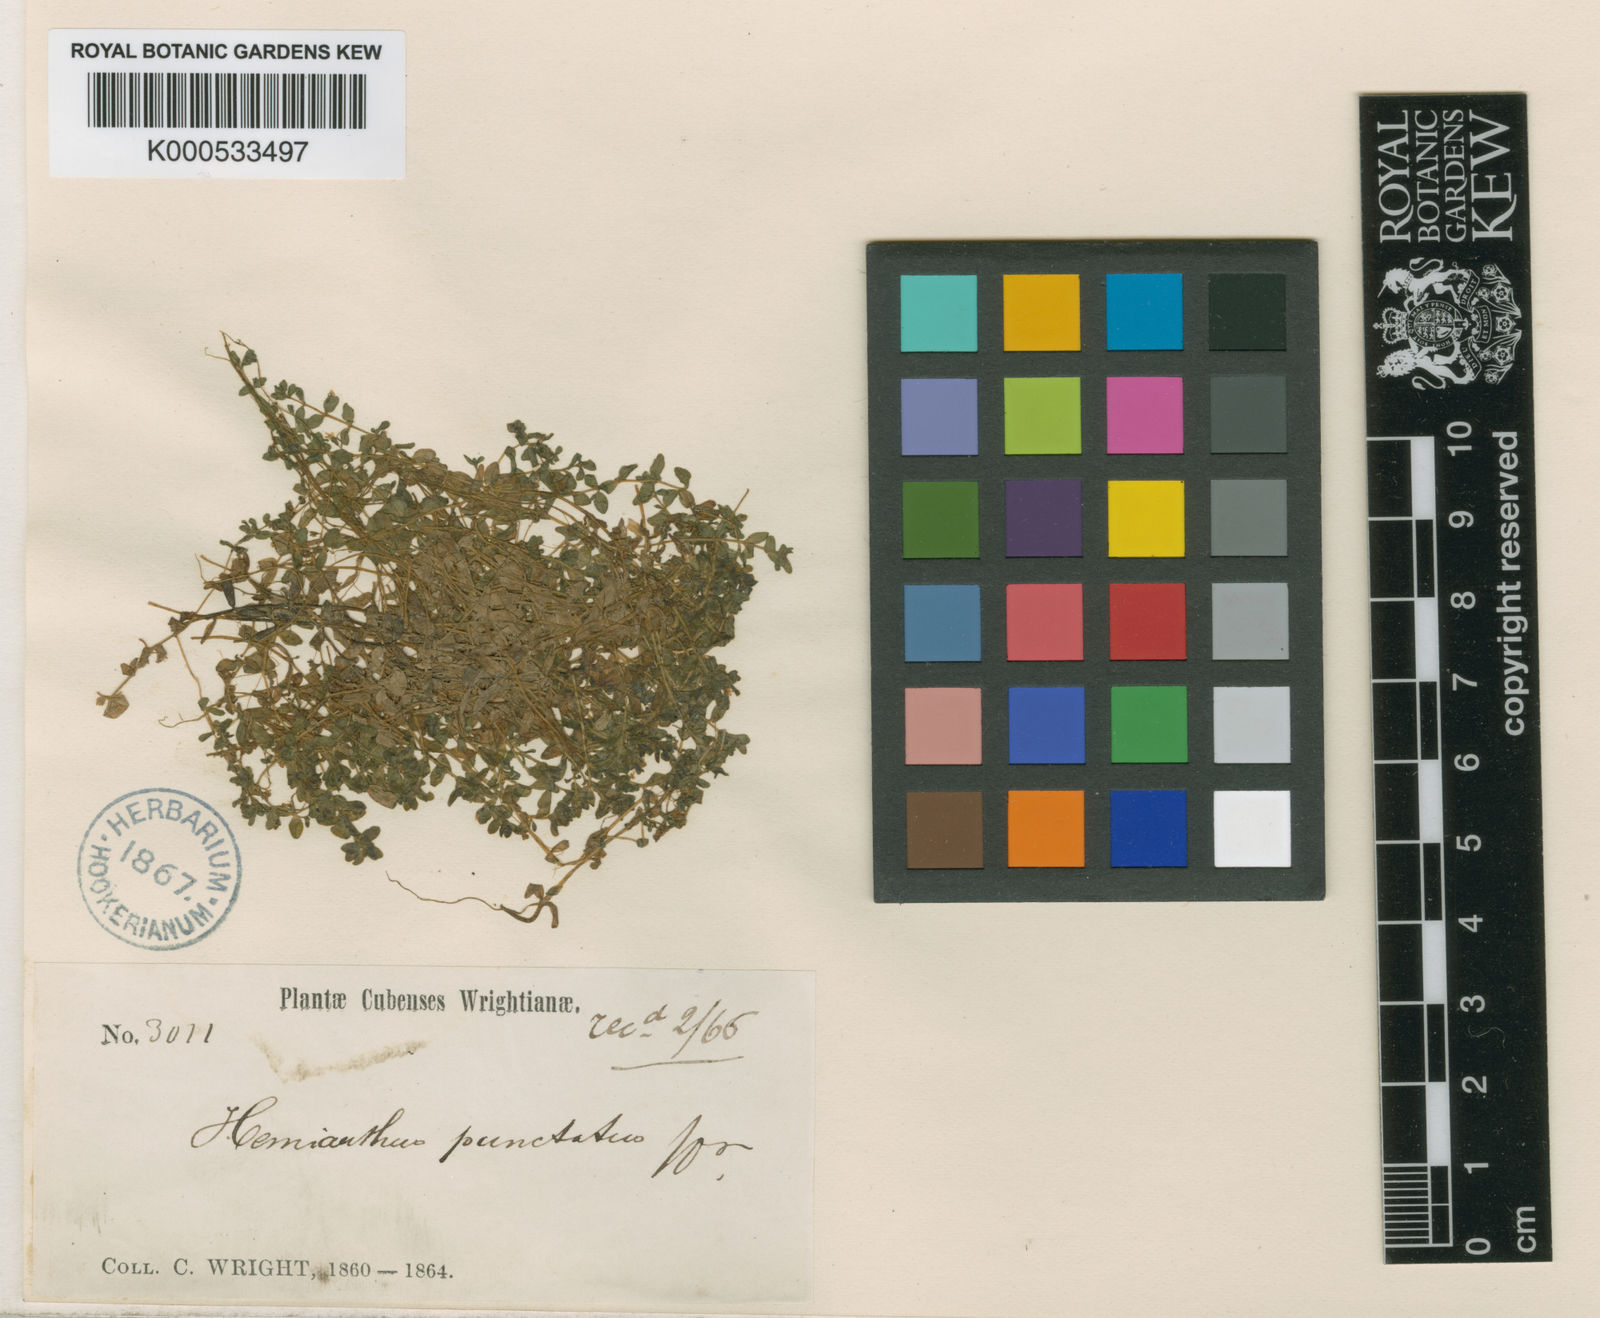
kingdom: Plantae
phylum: Tracheophyta
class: Magnoliopsida
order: Lamiales
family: Linderniaceae
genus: Micranthemum
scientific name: Micranthemum callitrichoides
